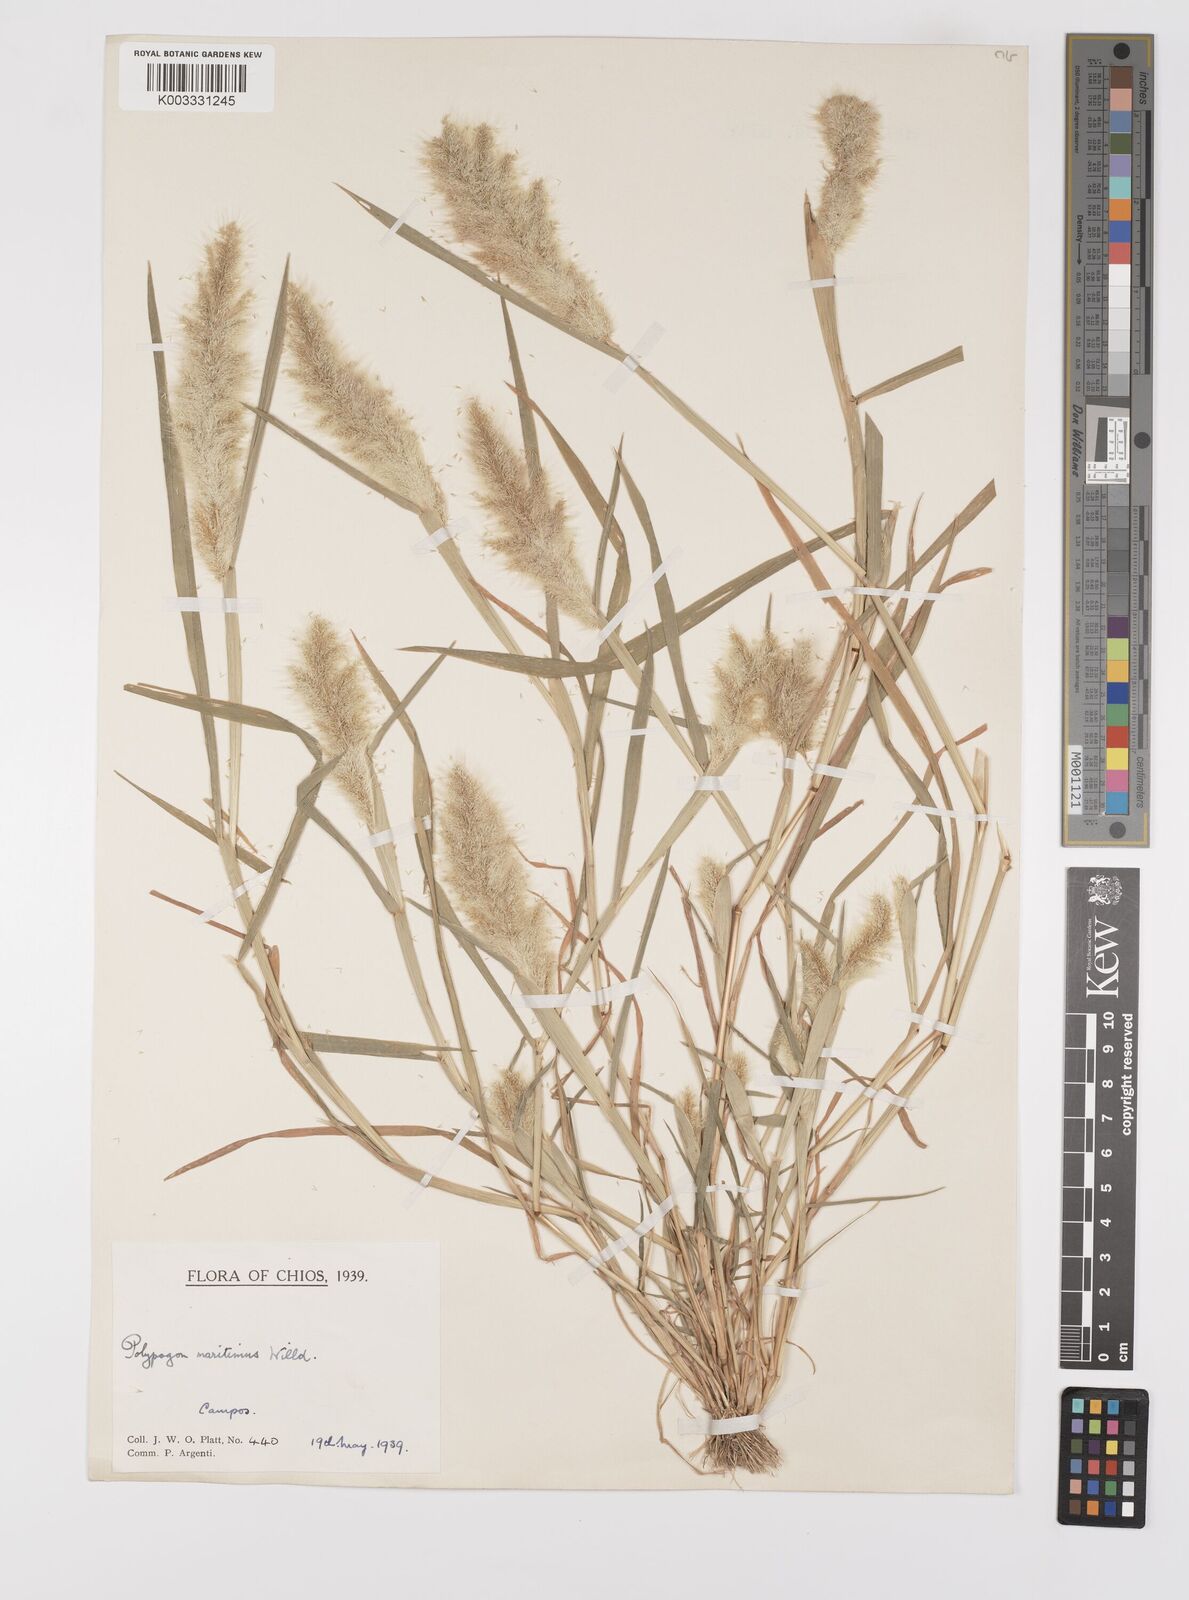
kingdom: Plantae
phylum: Tracheophyta
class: Liliopsida
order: Poales
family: Poaceae
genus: Polypogon
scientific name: Polypogon maritimus
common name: Mediterranean rabbitsfoot grass
